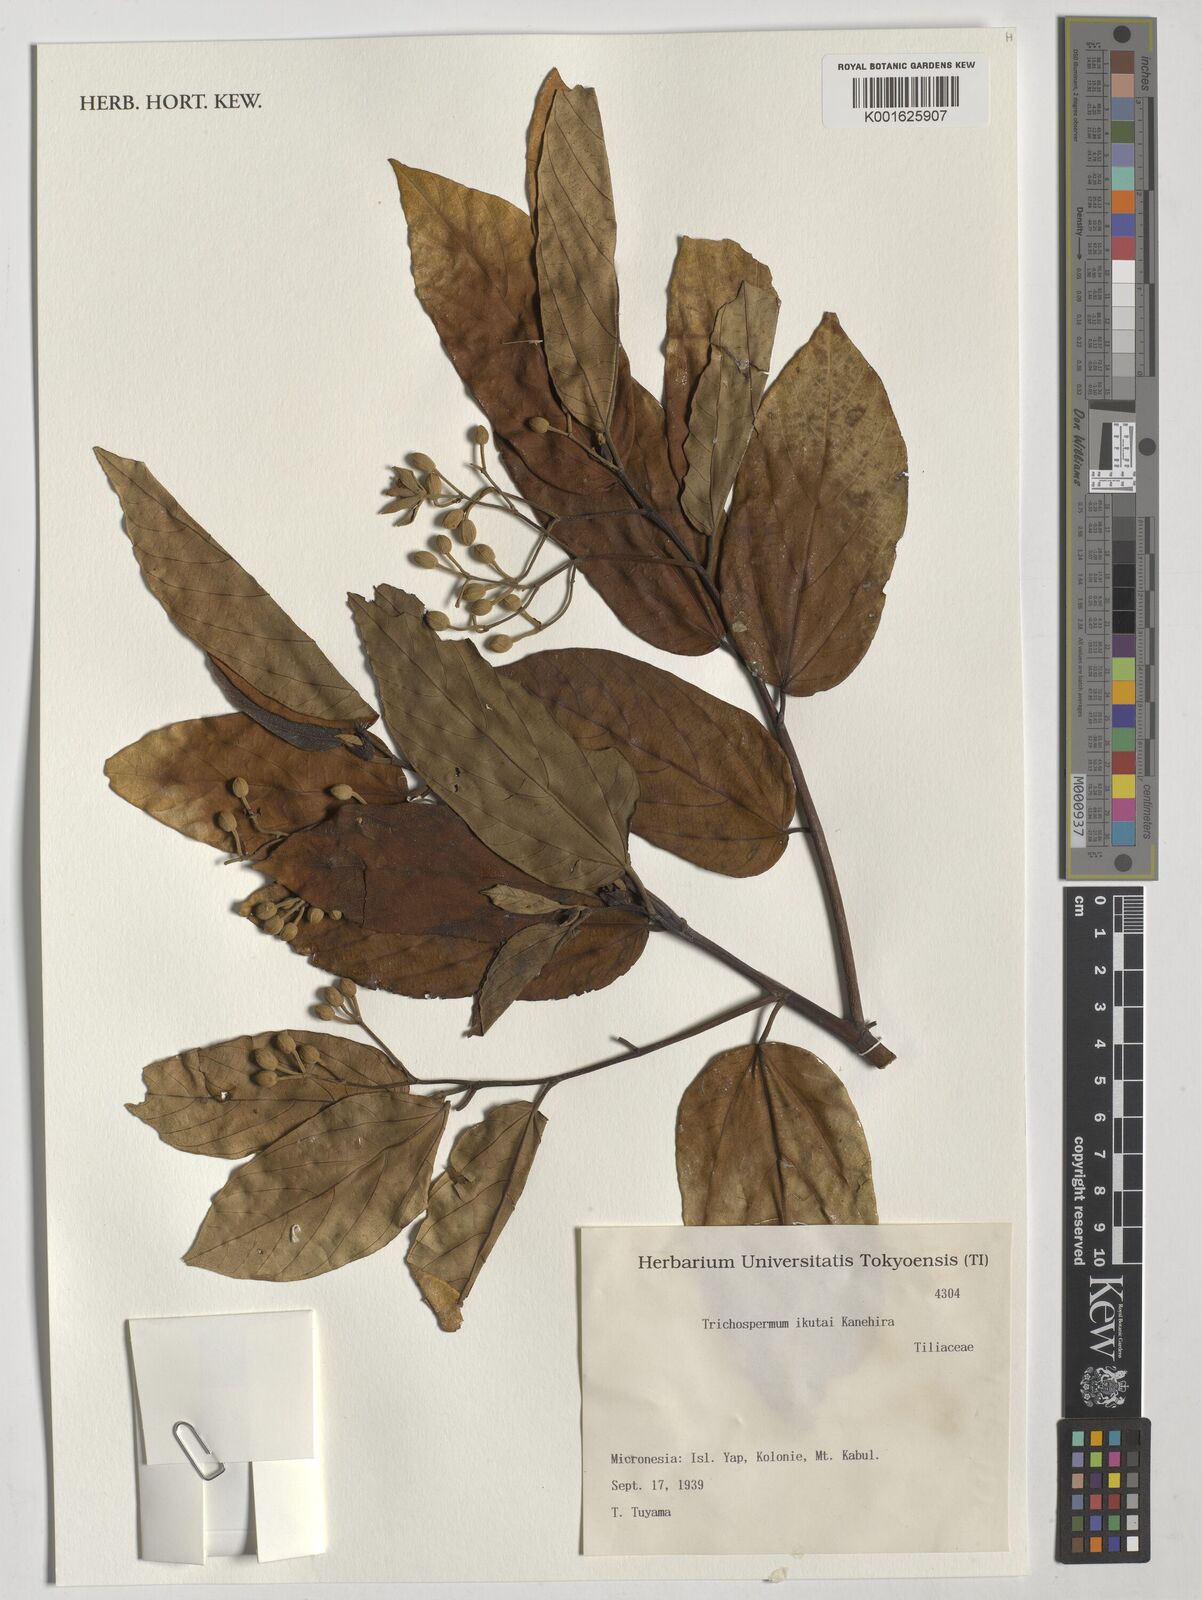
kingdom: Plantae
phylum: Tracheophyta
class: Magnoliopsida
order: Malvales
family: Malvaceae
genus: Trichospermum
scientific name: Trichospermum ikutae
